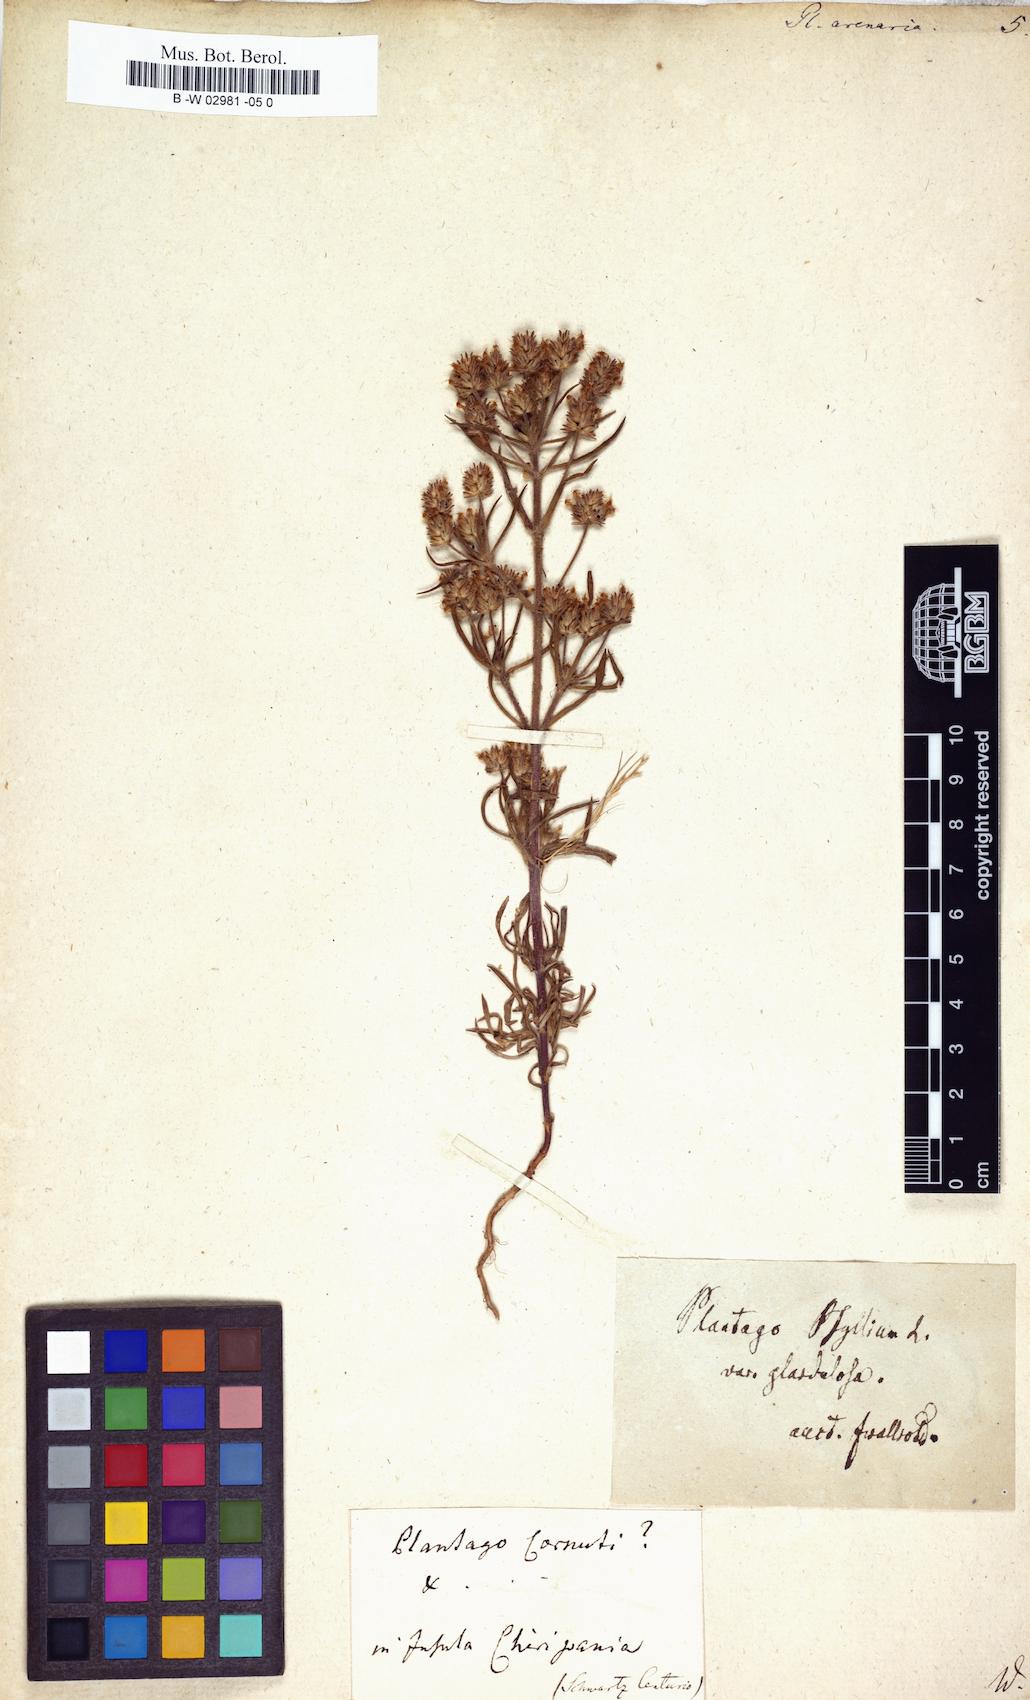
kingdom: Plantae
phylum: Tracheophyta
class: Magnoliopsida
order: Lamiales
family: Plantaginaceae
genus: Plantago
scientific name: Plantago arenaria
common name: Branched plantain
